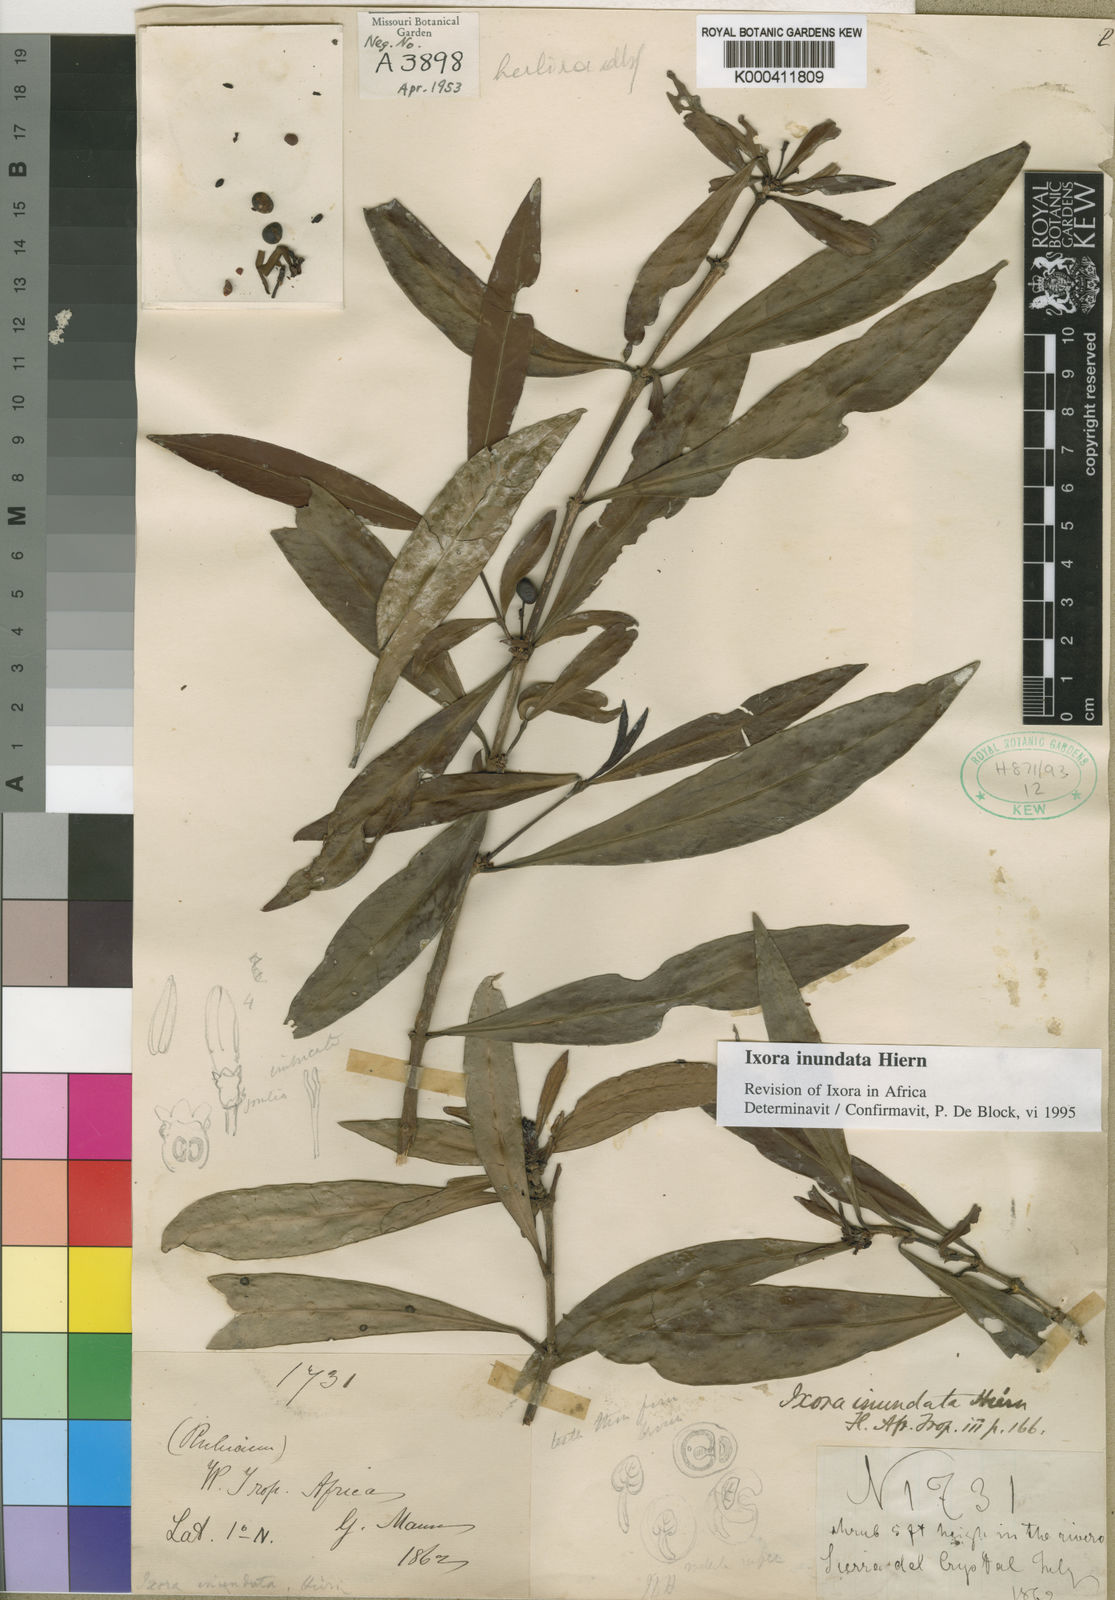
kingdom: Plantae
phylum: Tracheophyta
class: Magnoliopsida
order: Gentianales
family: Rubiaceae
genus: Ixora
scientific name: Ixora inundata
